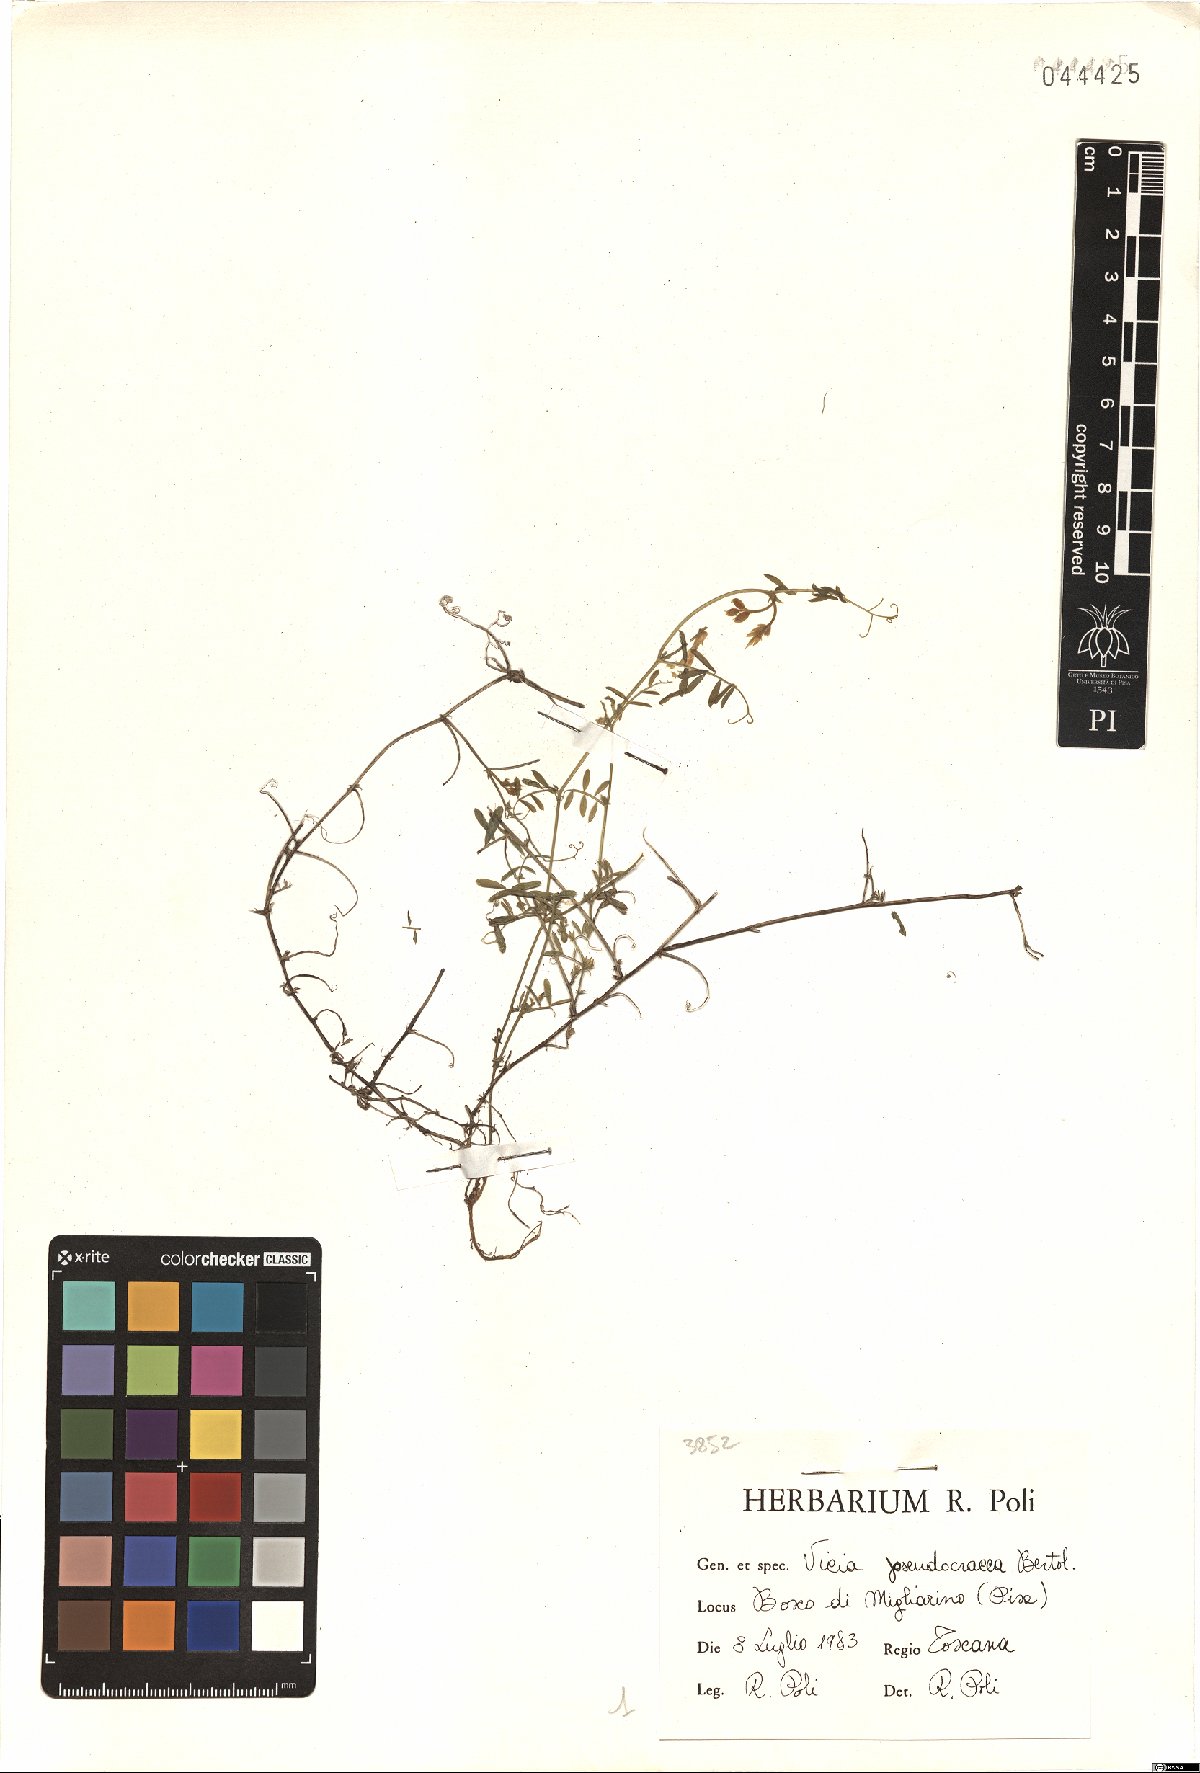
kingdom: Plantae
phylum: Tracheophyta
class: Magnoliopsida
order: Fabales
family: Fabaceae
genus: Vicia
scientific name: Vicia villosa
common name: Fodder vetch
